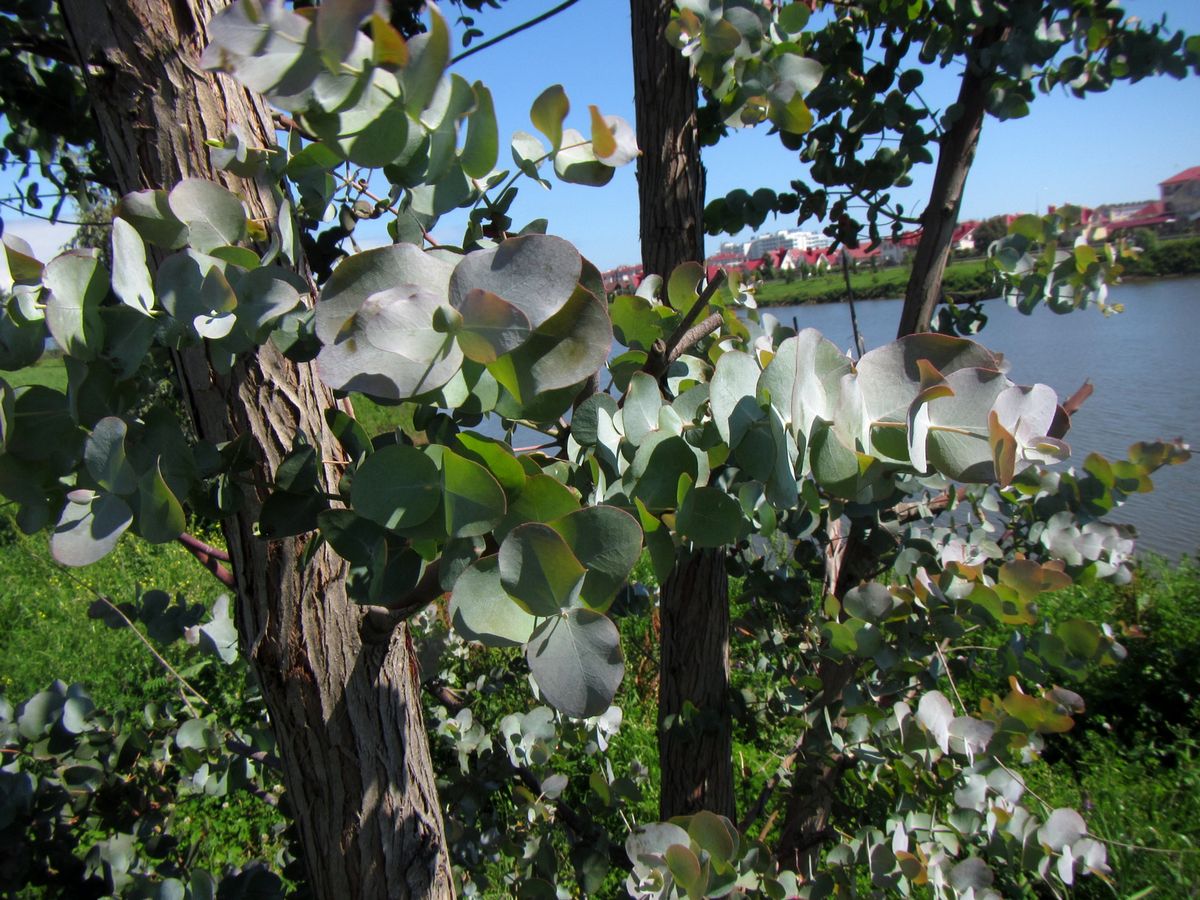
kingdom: Plantae
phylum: Tracheophyta
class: Magnoliopsida
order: Myrtales
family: Myrtaceae
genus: Eucalyptus
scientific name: Eucalyptus
